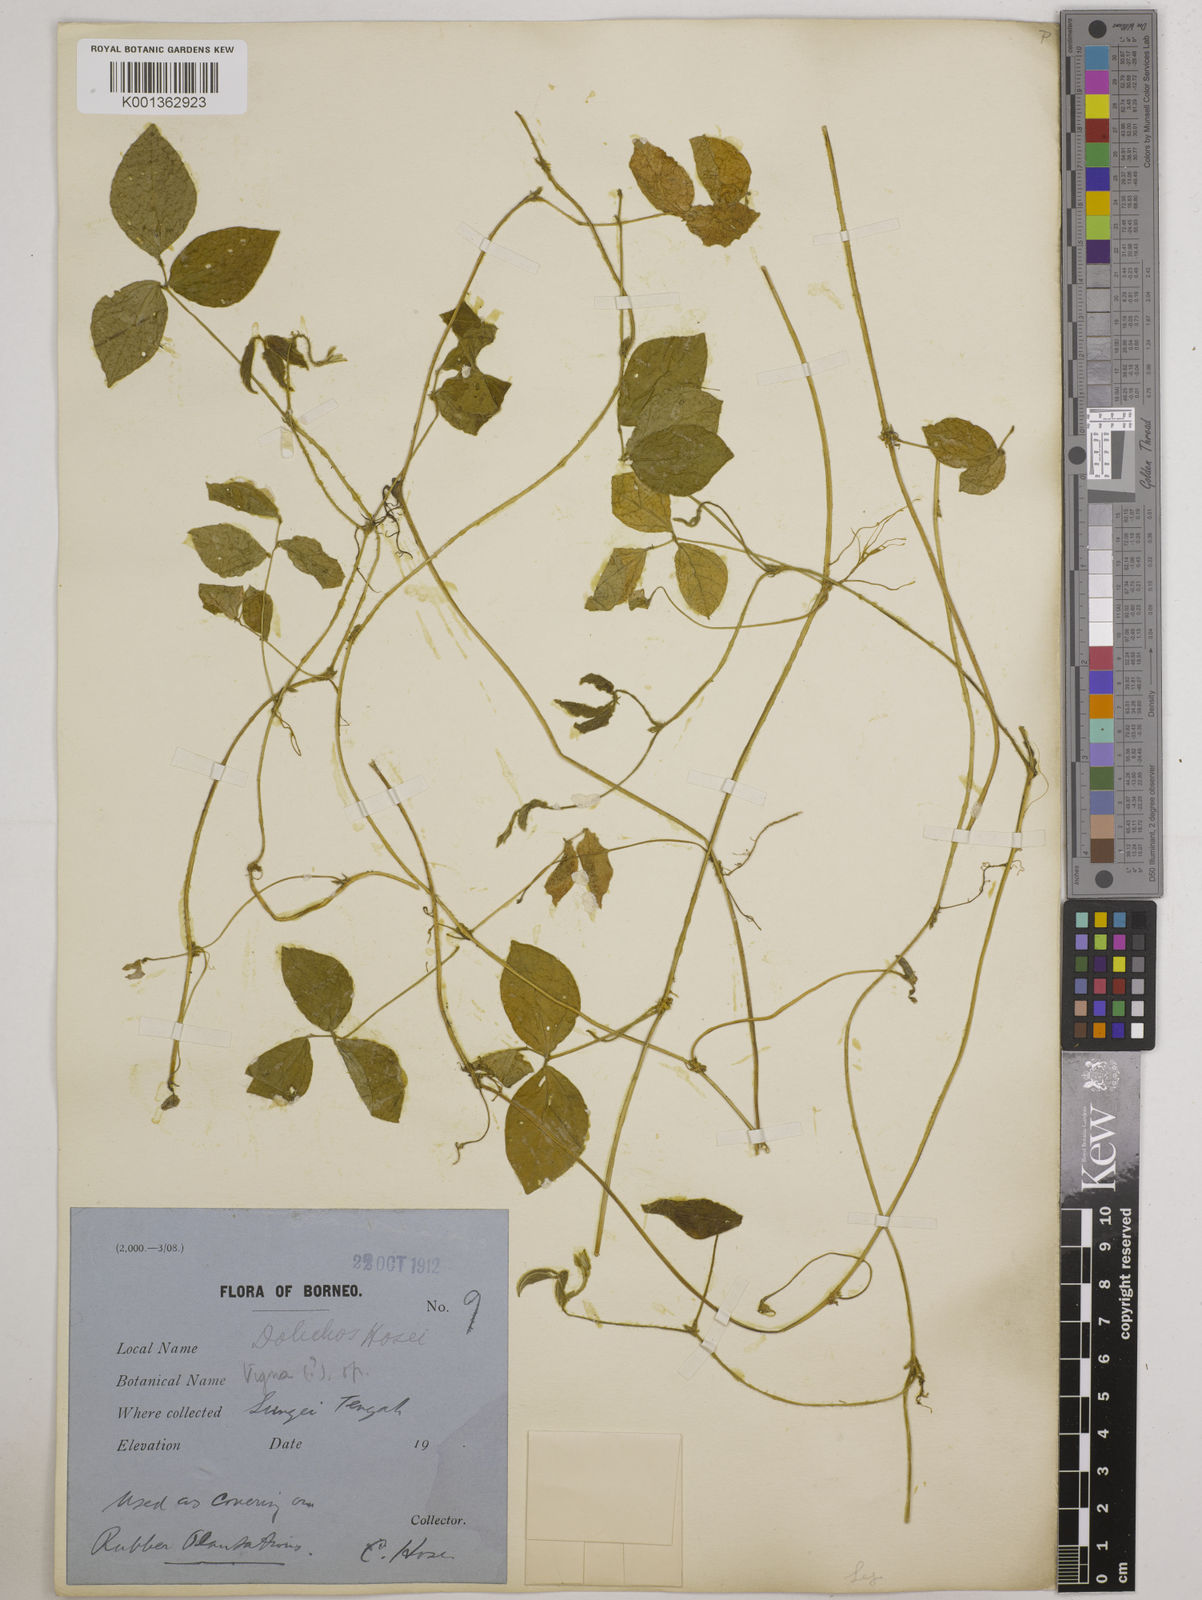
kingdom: Plantae
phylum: Tracheophyta
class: Magnoliopsida
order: Fabales
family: Fabaceae
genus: Vigna
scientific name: Vigna hosei
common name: Sarawak-bean
